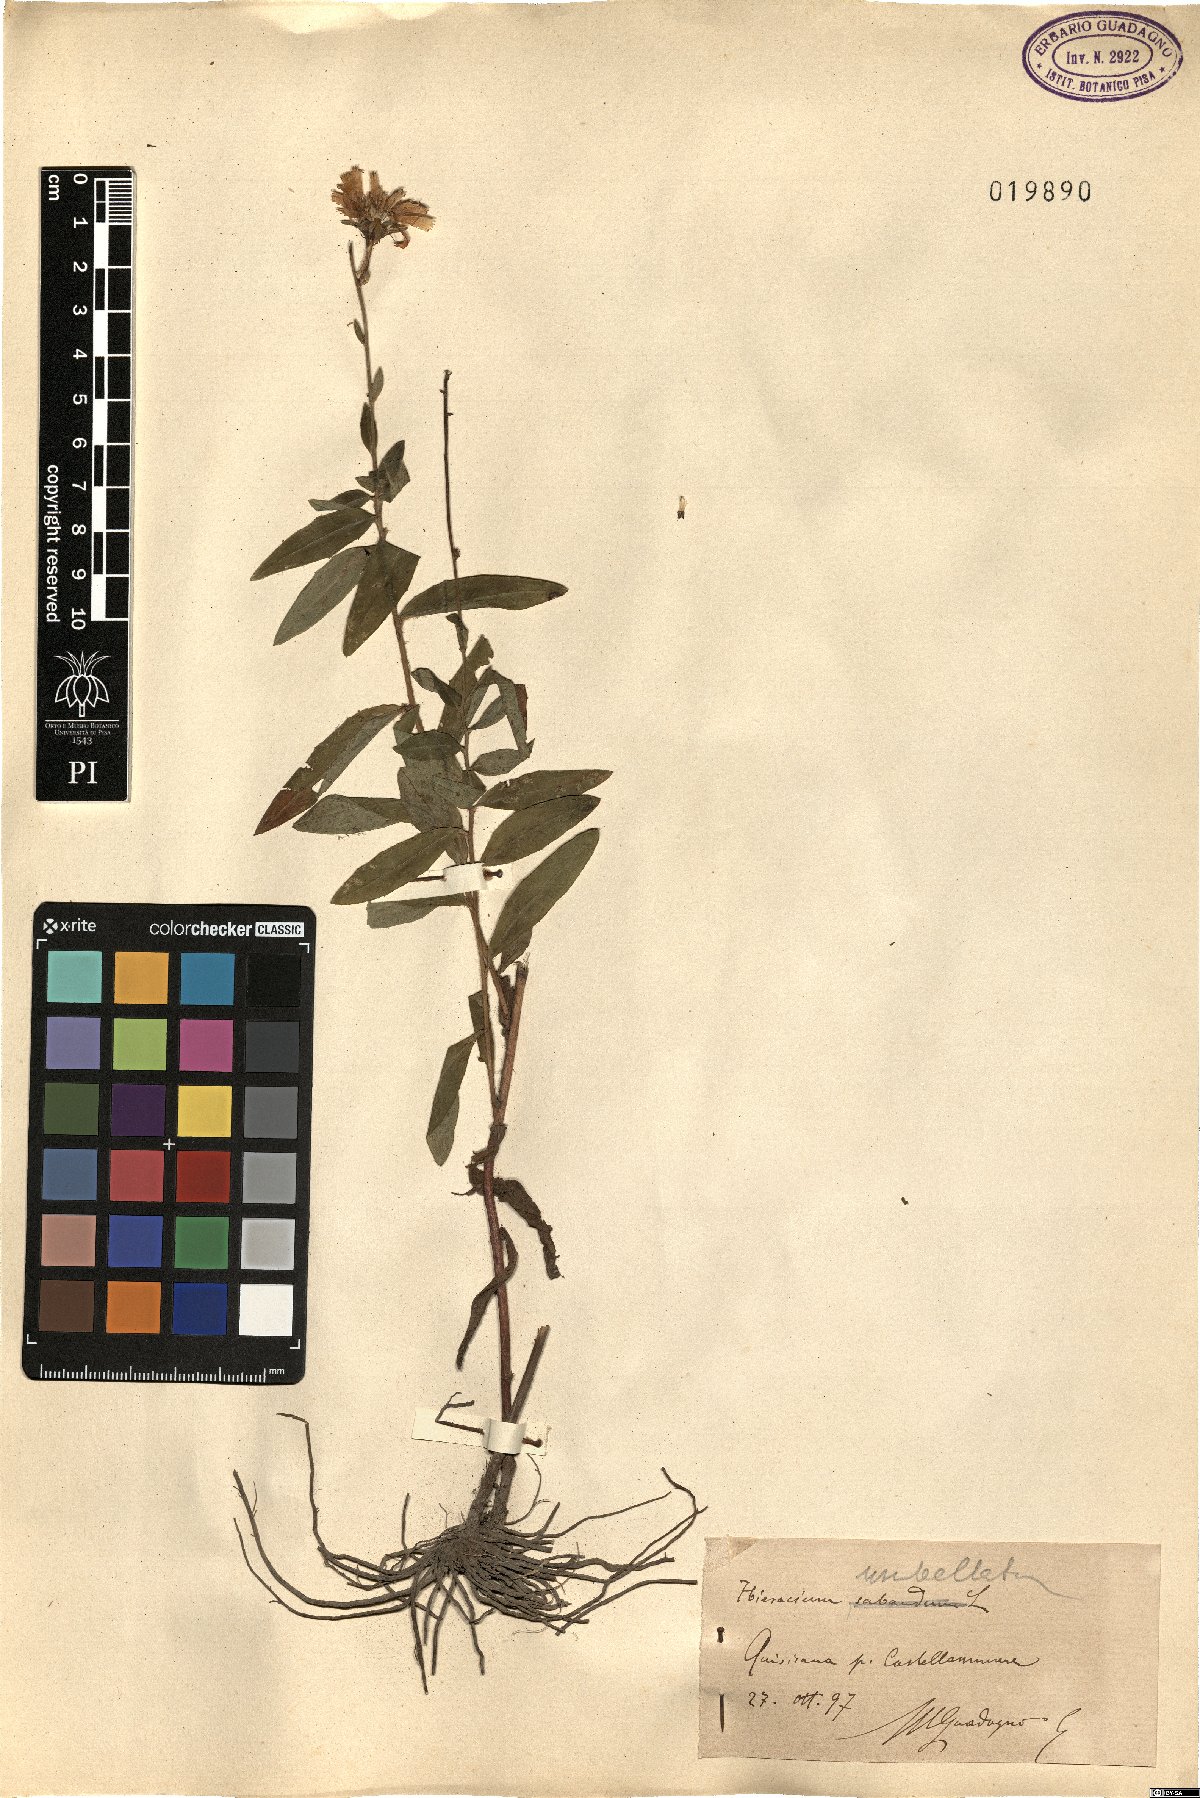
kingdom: Plantae
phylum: Tracheophyta
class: Magnoliopsida
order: Asterales
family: Asteraceae
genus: Hieracium
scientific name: Hieracium umbellatum
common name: Northern hawkweed
